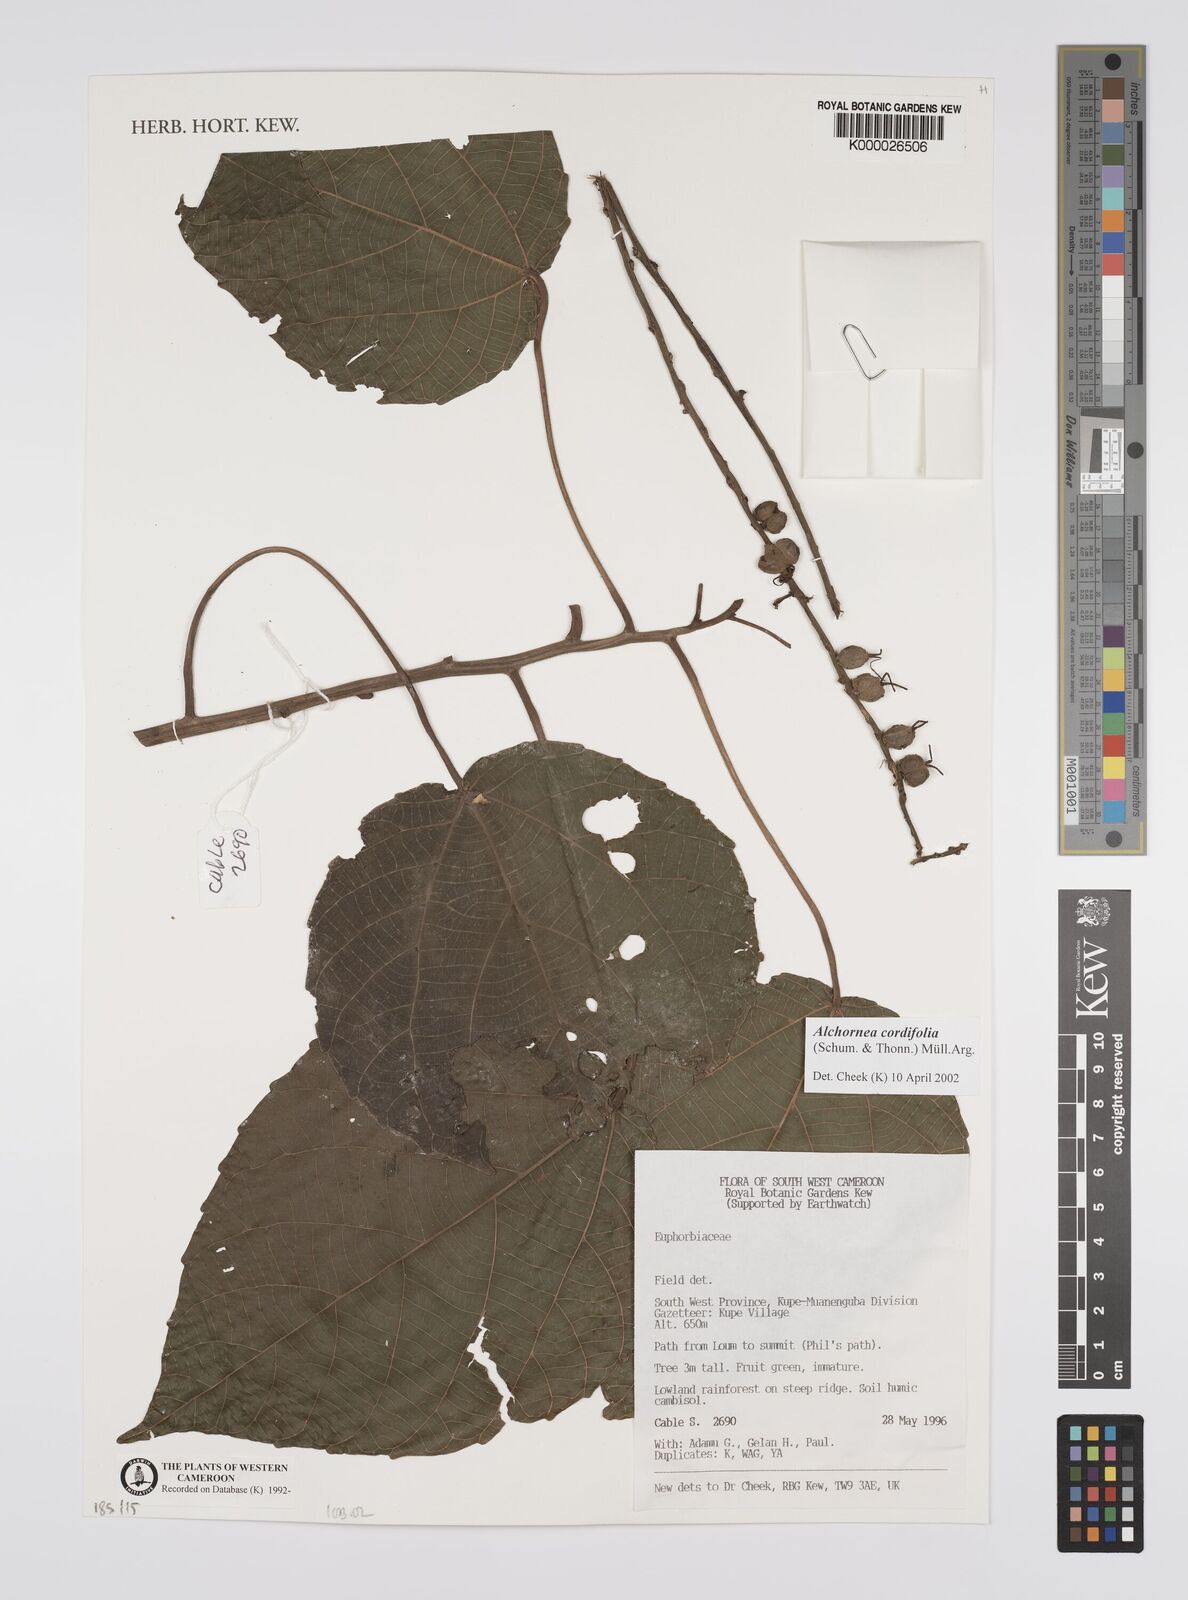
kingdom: Plantae
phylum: Tracheophyta
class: Magnoliopsida
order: Malpighiales
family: Euphorbiaceae
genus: Alchornea
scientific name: Alchornea
